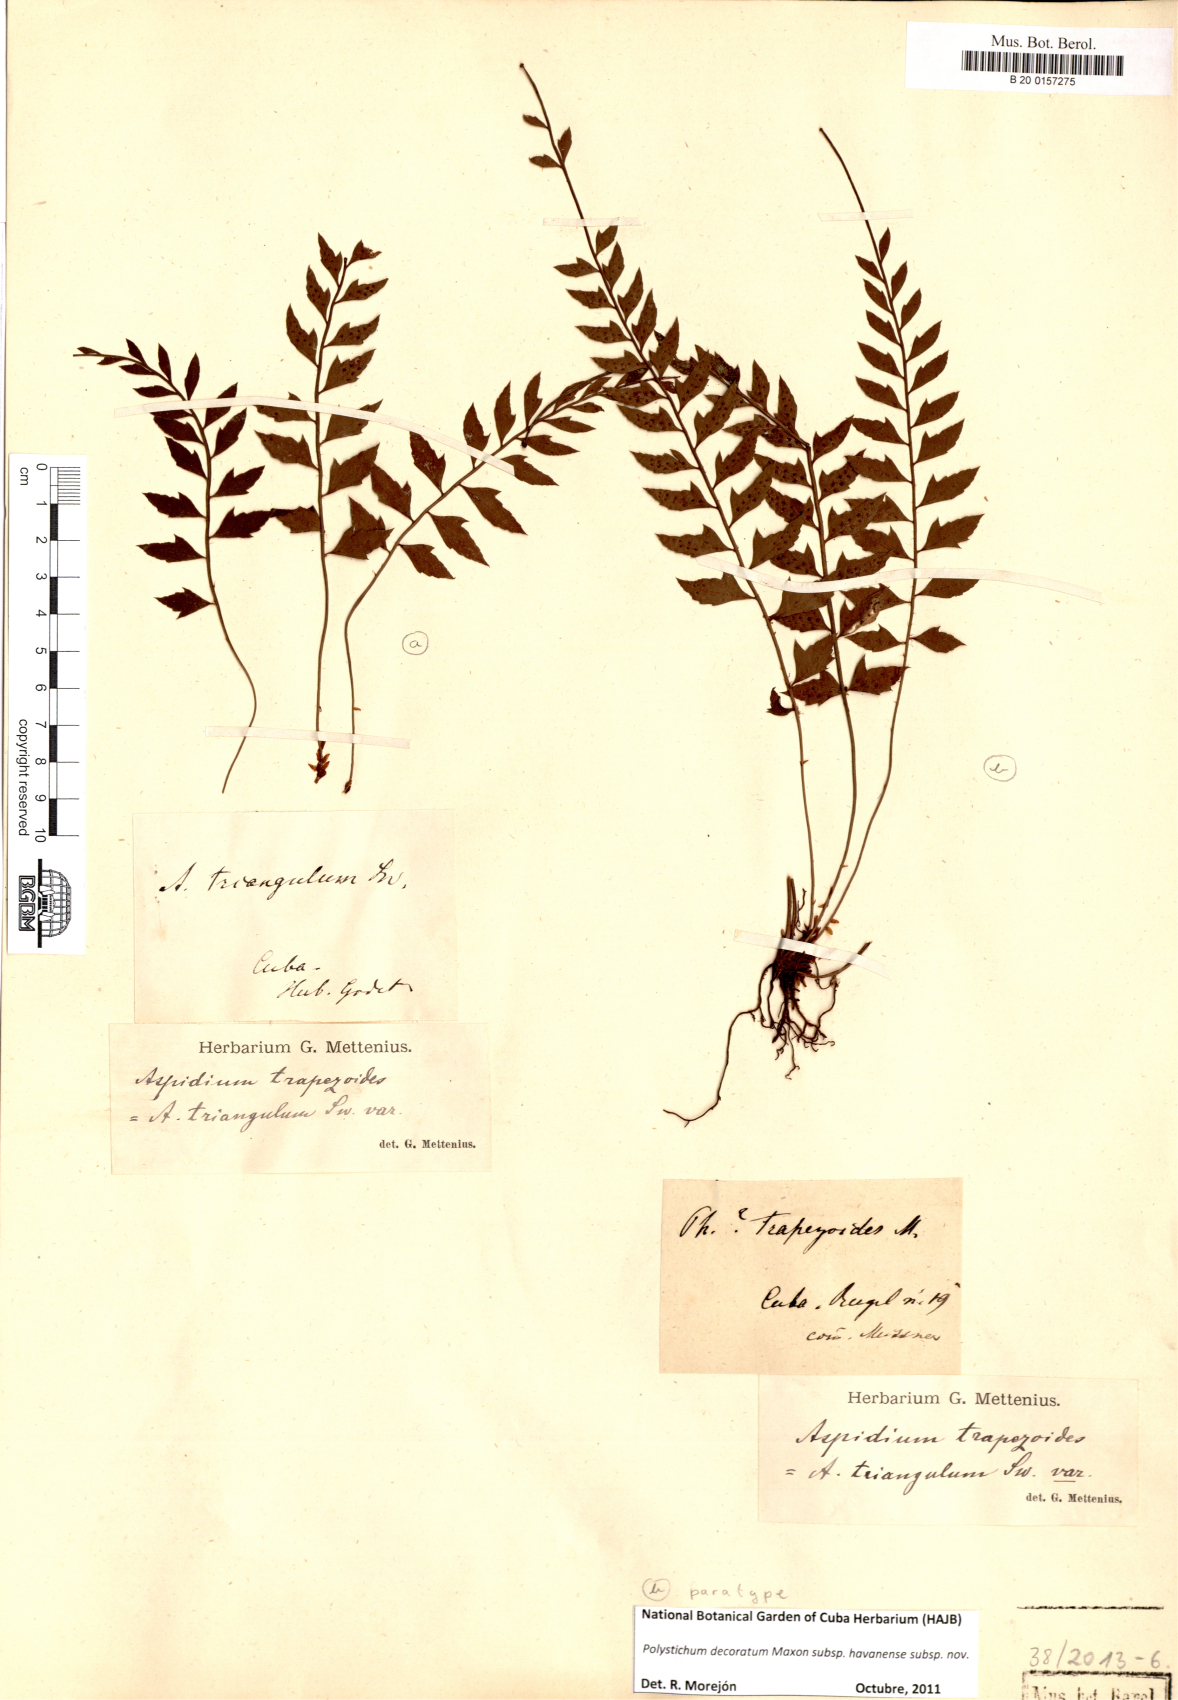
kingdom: Plantae
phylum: Tracheophyta
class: Polypodiopsida
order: Polypodiales
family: Dryopteridaceae
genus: Polystichum
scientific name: Polystichum decoratum
